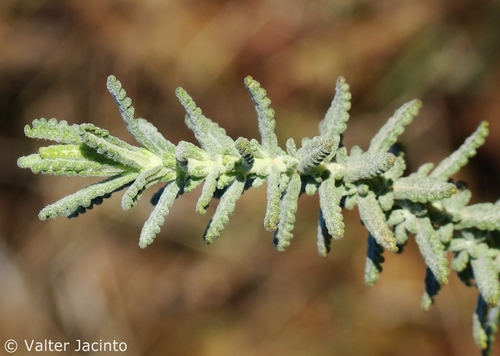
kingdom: Plantae
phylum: Tracheophyta
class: Magnoliopsida
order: Lamiales
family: Lamiaceae
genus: Teucrium
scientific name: Teucrium algarbiense
